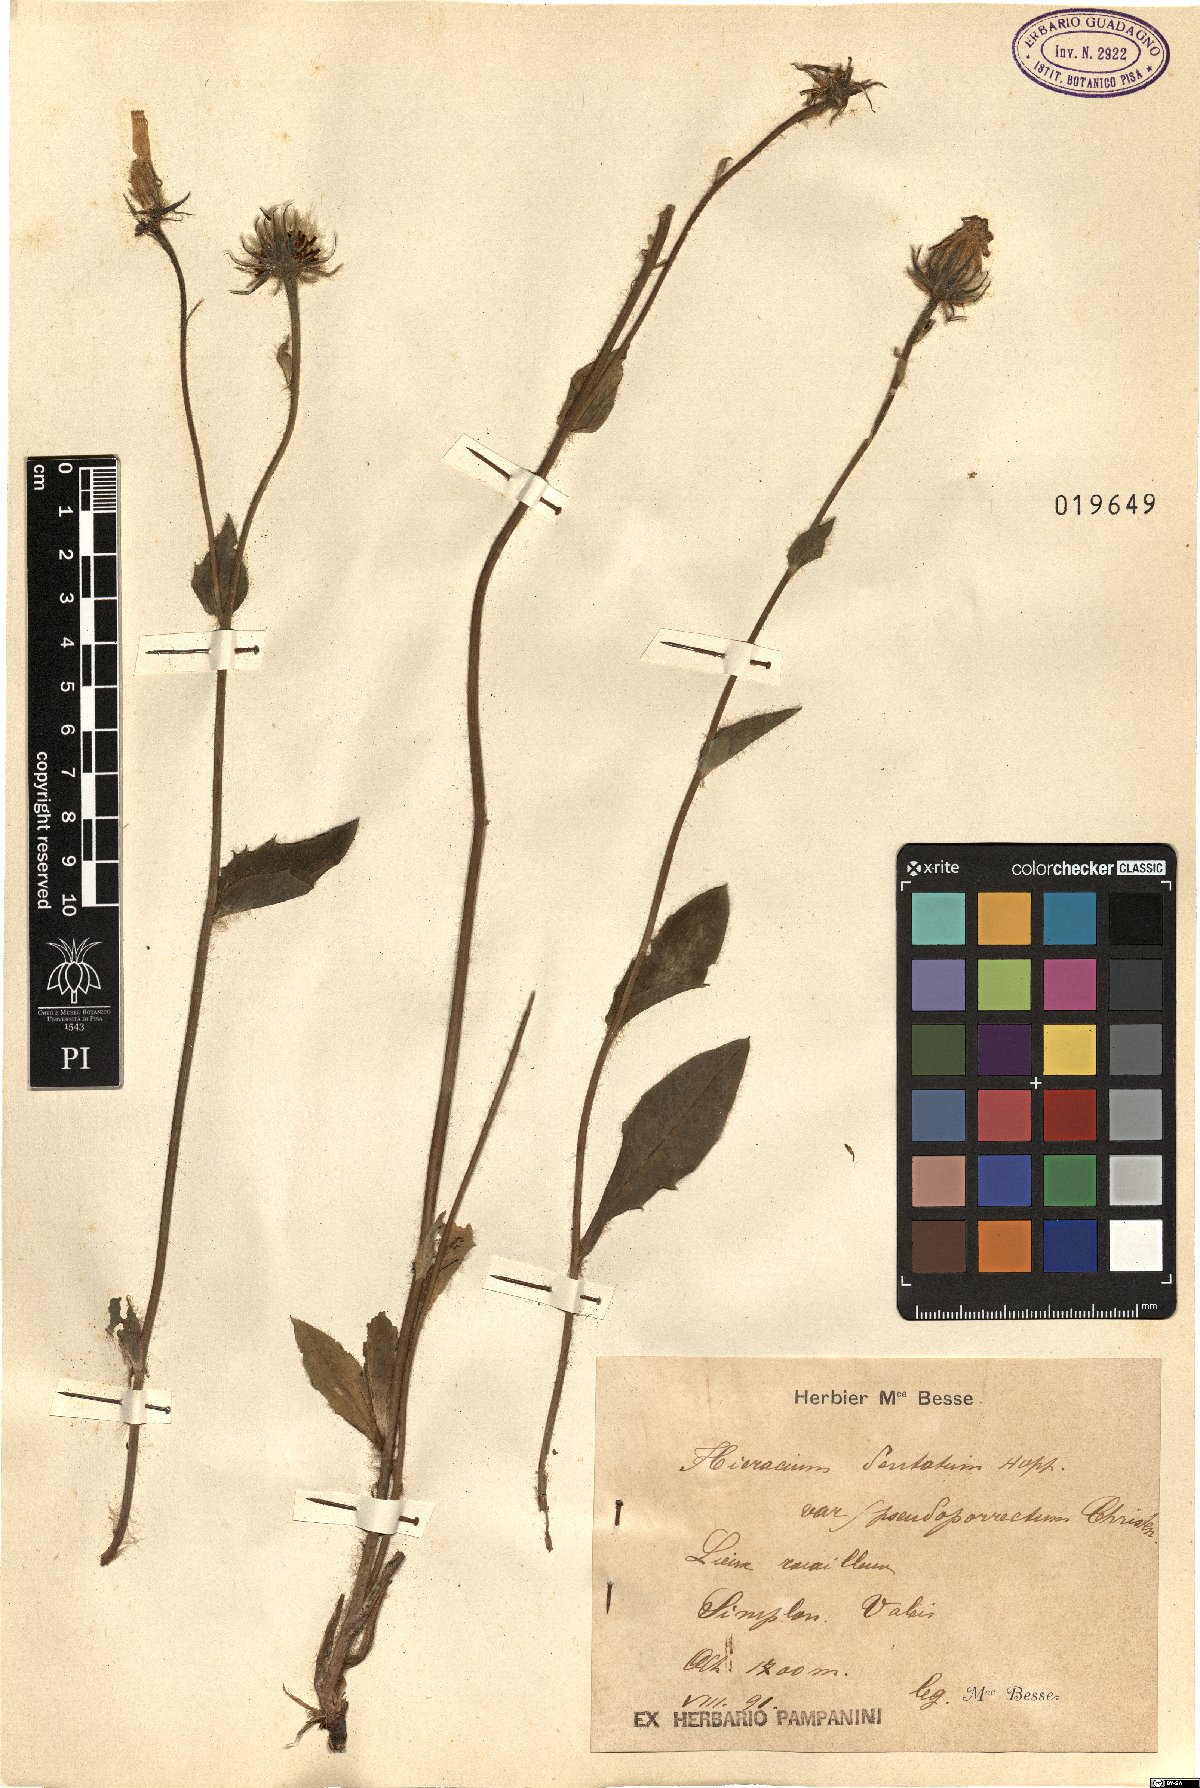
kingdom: Plantae
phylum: Tracheophyta
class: Magnoliopsida
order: Asterales
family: Asteraceae
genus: Hieracium
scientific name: Hieracium pseudoporrectum
